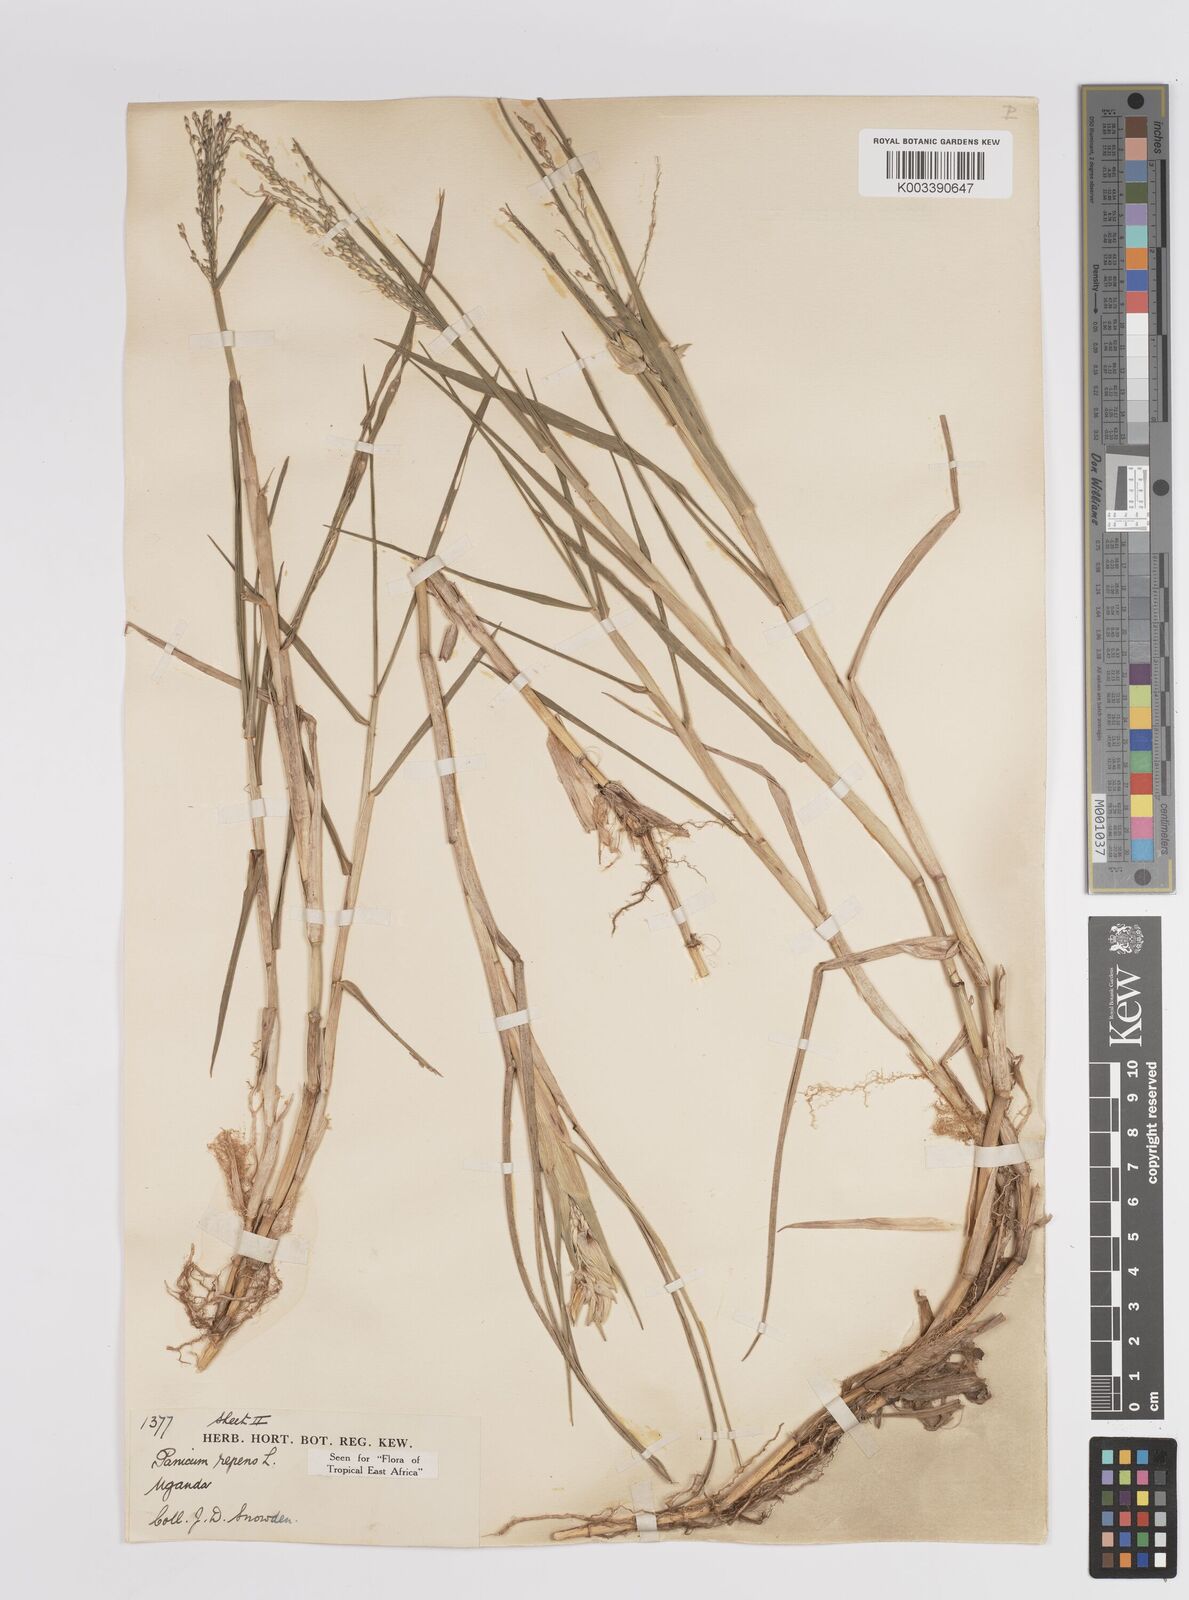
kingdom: Plantae
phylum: Tracheophyta
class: Liliopsida
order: Poales
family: Poaceae
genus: Panicum
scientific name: Panicum repens
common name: Torpedo grass
